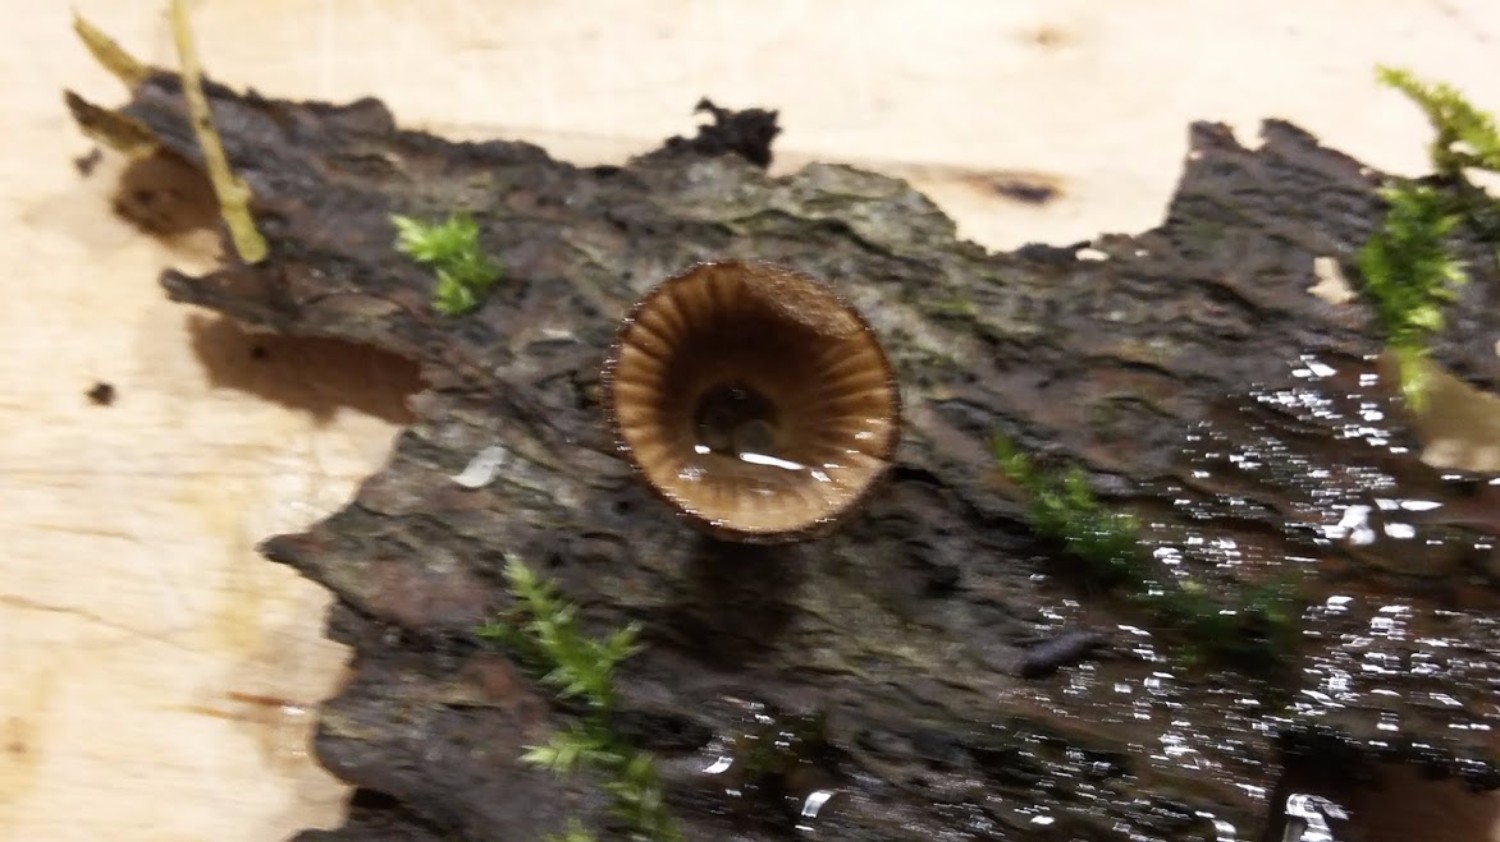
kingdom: Fungi
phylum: Basidiomycota
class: Agaricomycetes
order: Agaricales
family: Agaricaceae
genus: Cyathus
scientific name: Cyathus striatus
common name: stribet redesvamp
